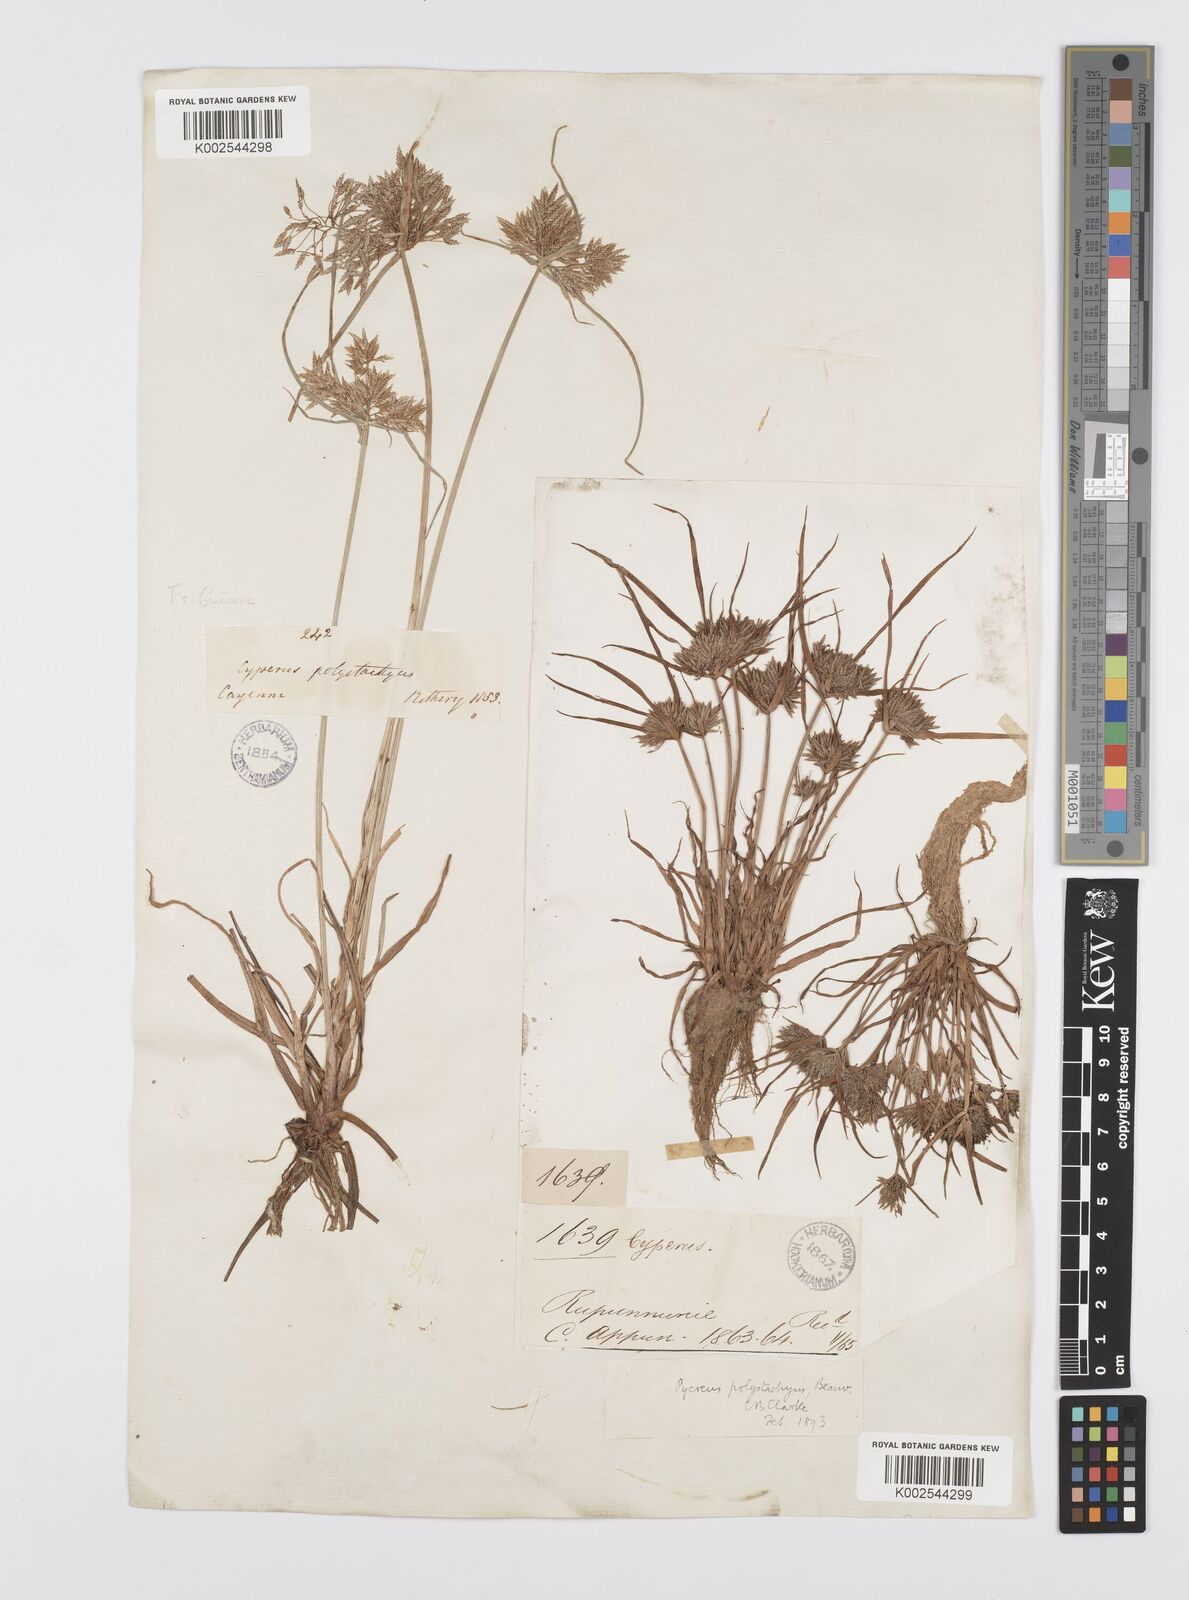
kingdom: Plantae
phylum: Tracheophyta
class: Liliopsida
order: Poales
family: Cyperaceae
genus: Cyperus
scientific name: Cyperus polystachyos
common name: Bunchy flat sedge
